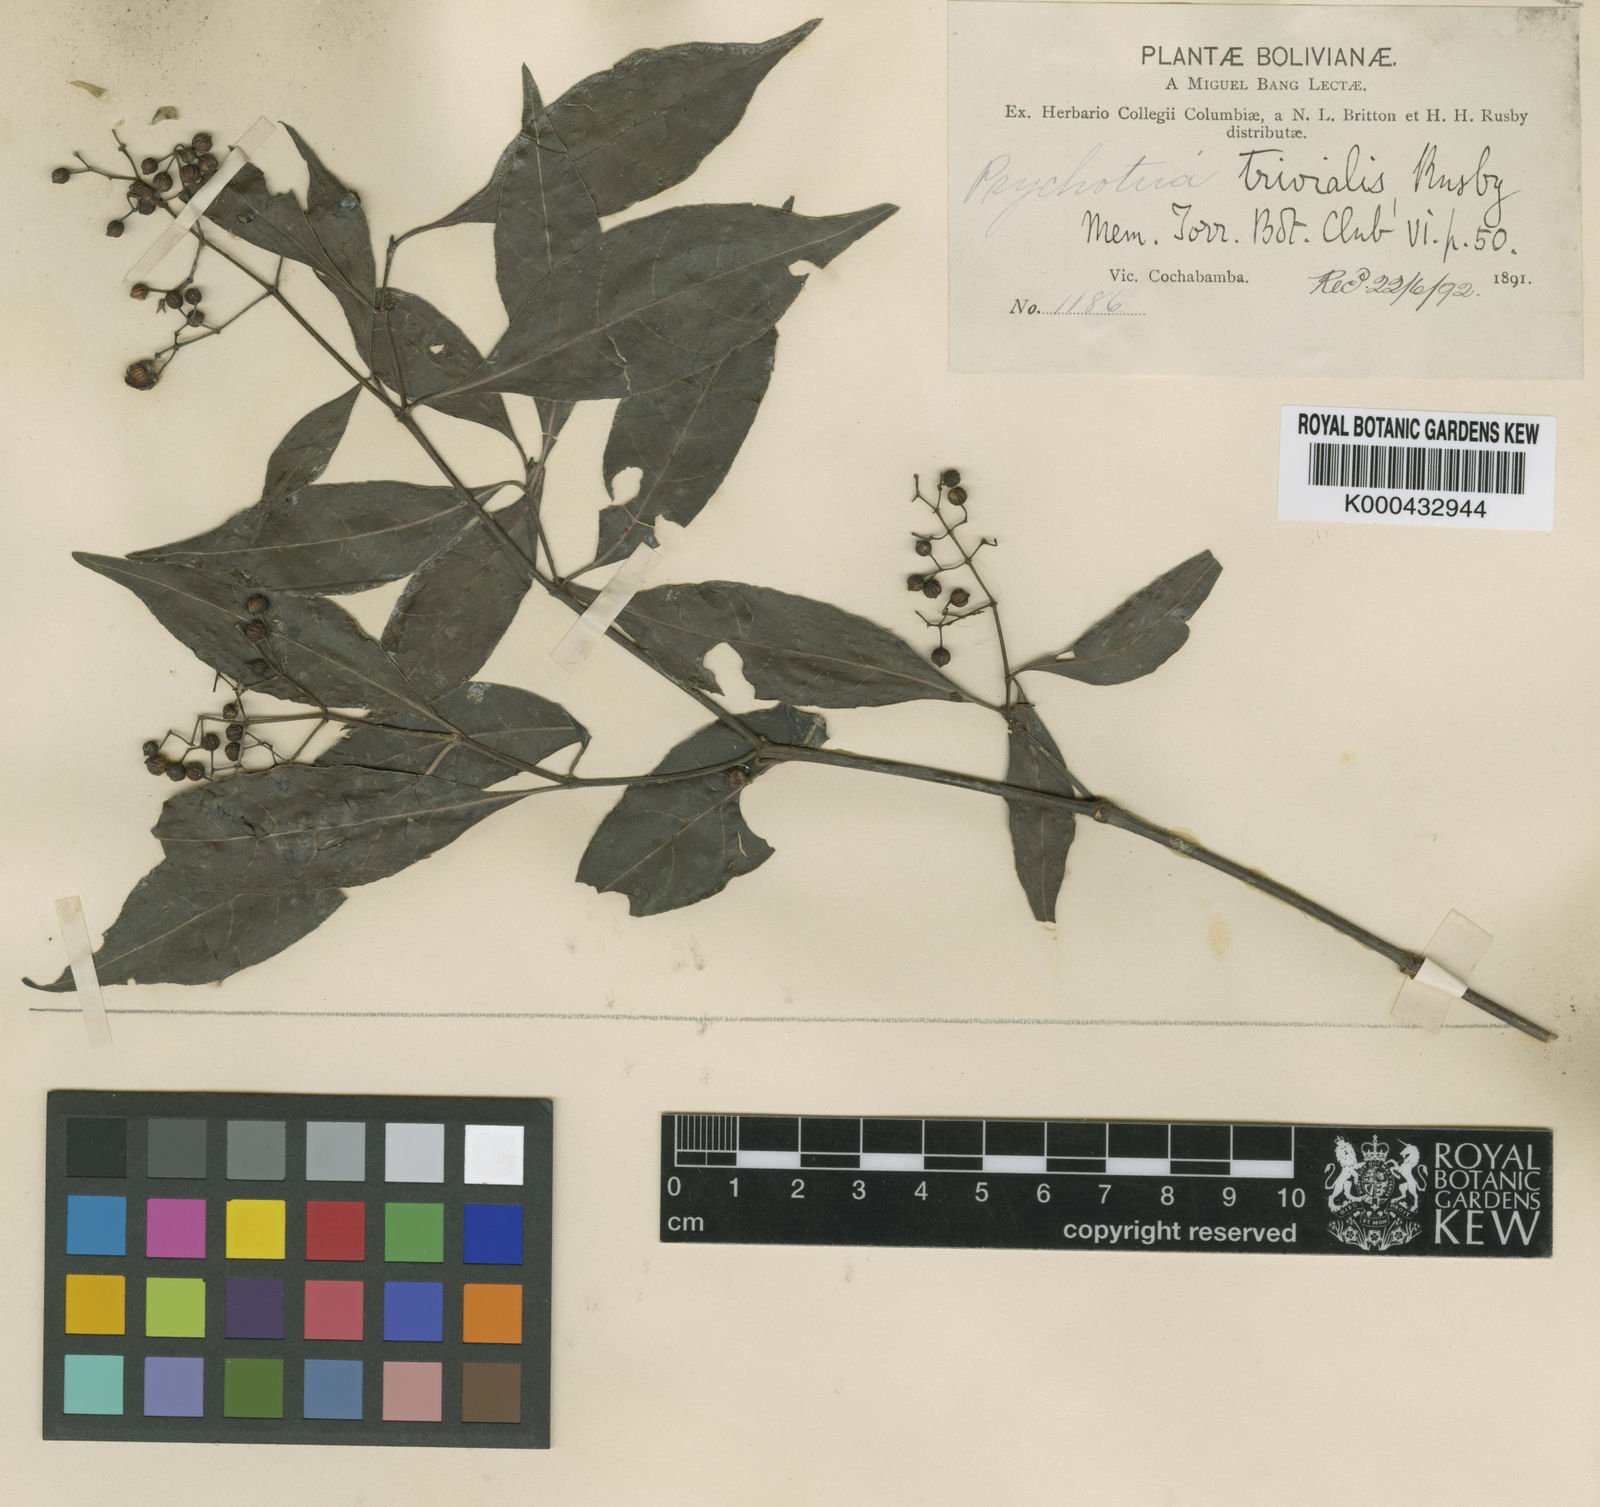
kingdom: Plantae
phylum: Tracheophyta
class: Magnoliopsida
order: Gentianales
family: Rubiaceae
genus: Psychotria
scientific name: Psychotria trivialis
